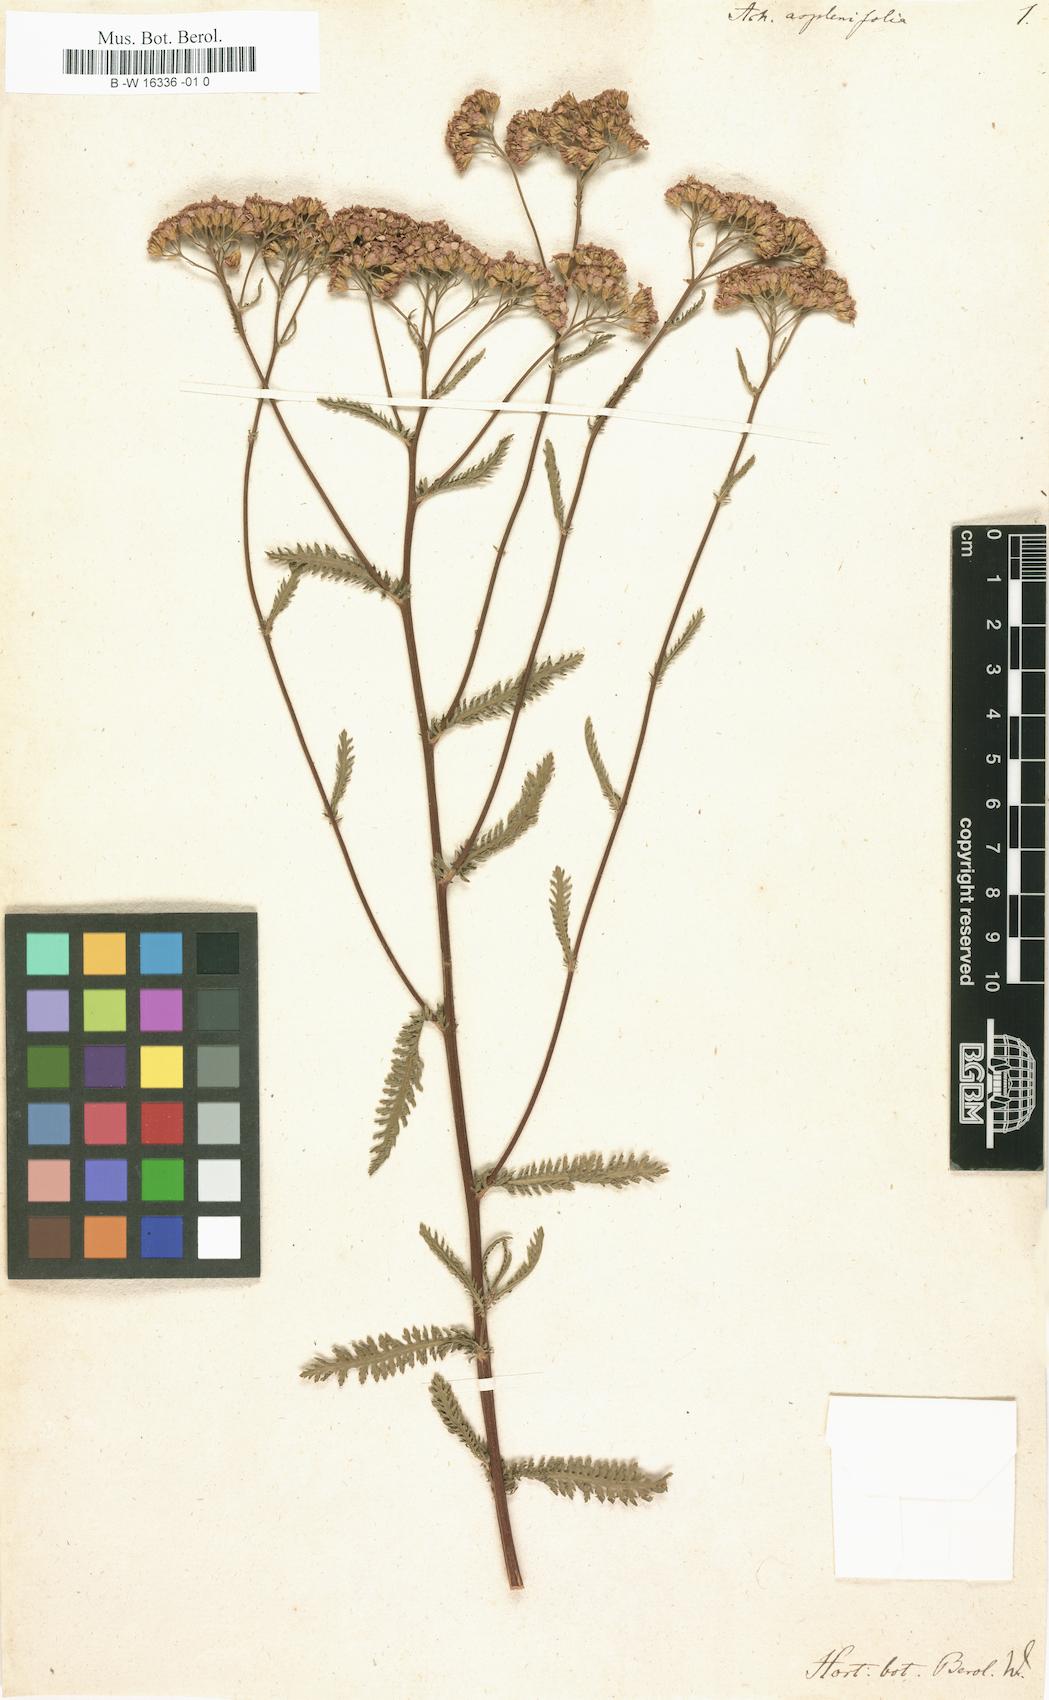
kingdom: Plantae
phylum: Tracheophyta
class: Magnoliopsida
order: Asterales
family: Asteraceae
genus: Achillea
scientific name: Achillea aspleniifolia
